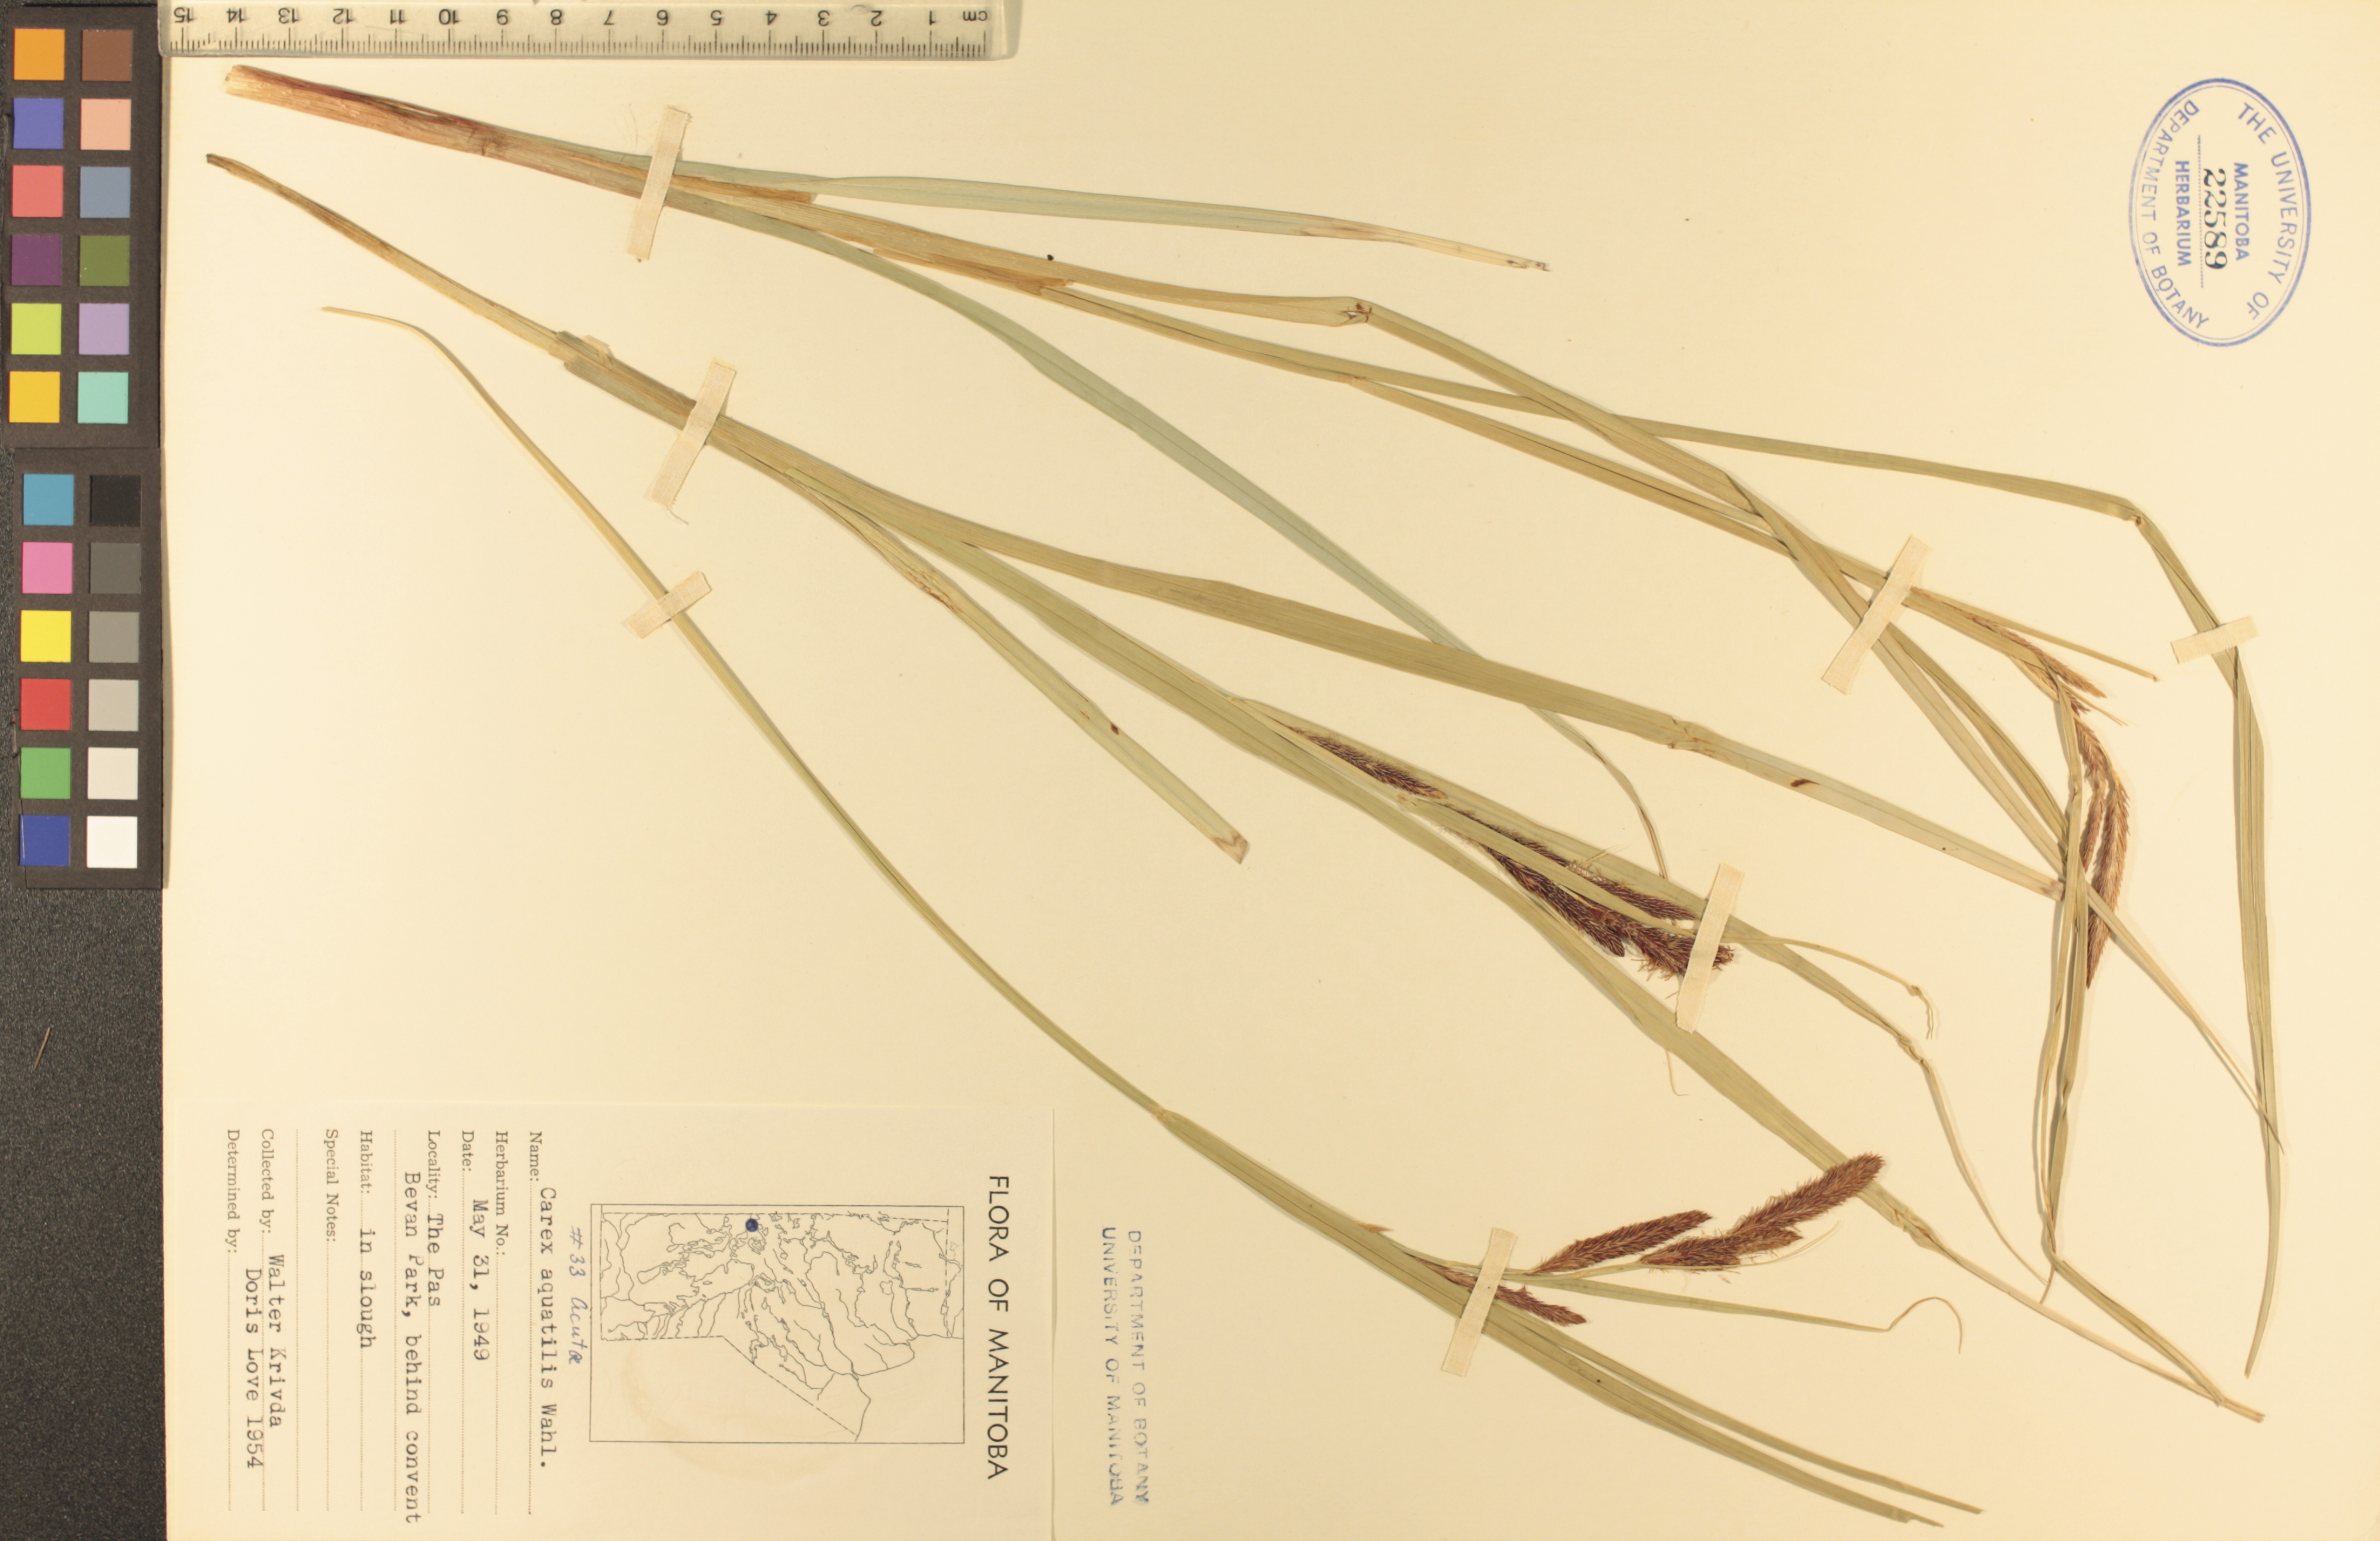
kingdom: Plantae
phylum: Tracheophyta
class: Liliopsida
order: Poales
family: Cyperaceae
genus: Carex
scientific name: Carex aquatilis
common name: Water sedge
